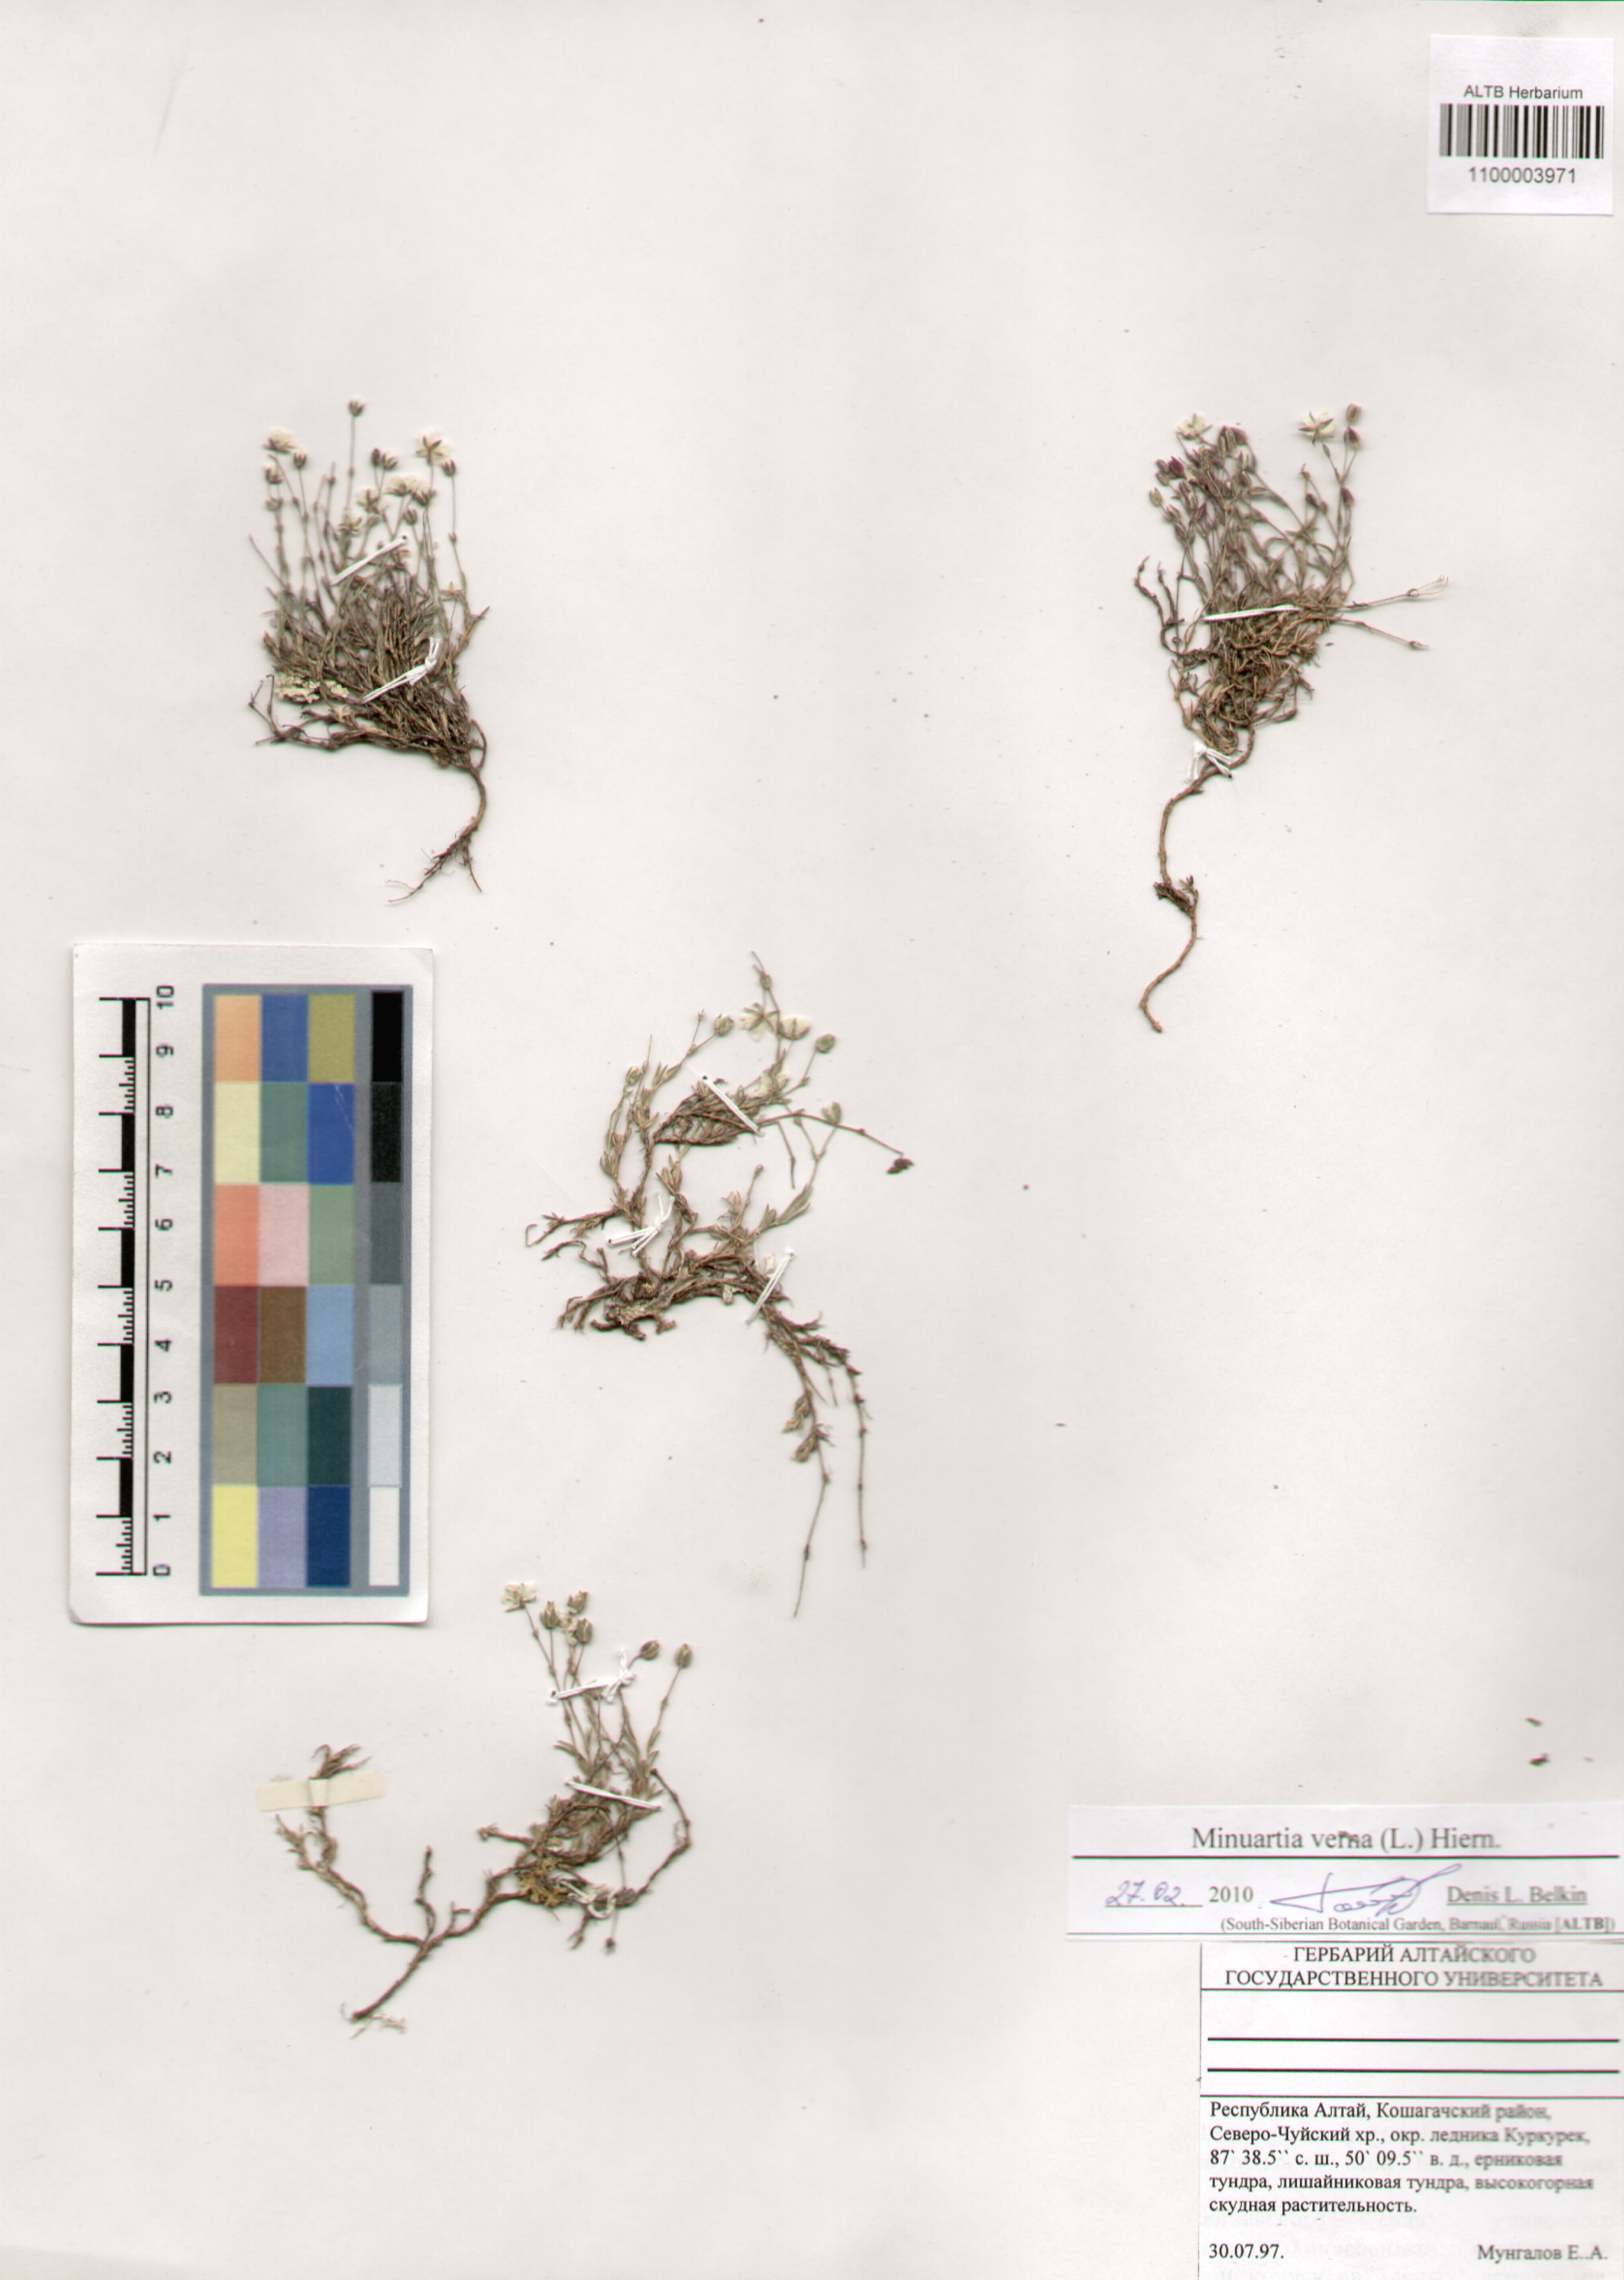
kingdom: Plantae
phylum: Tracheophyta
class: Magnoliopsida
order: Caryophyllales
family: Caryophyllaceae
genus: Sabulina
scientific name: Sabulina verna
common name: Spring sandwort
